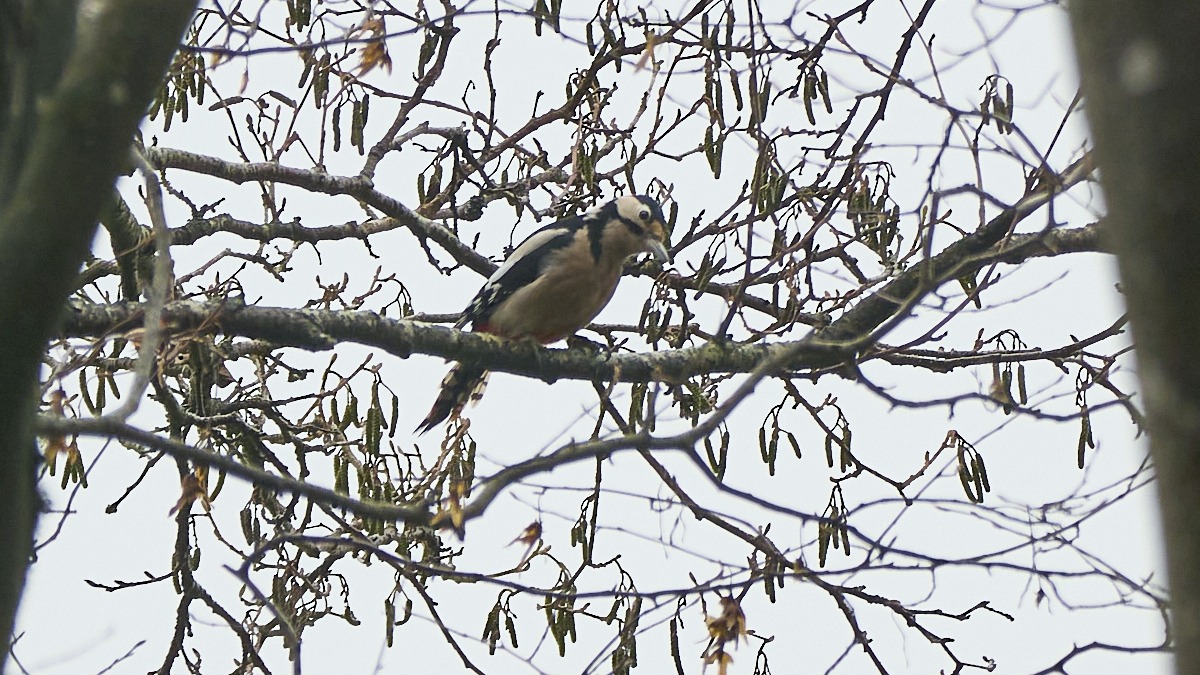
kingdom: Animalia
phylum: Chordata
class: Aves
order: Piciformes
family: Picidae
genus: Dendrocopos
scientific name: Dendrocopos major
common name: Stor flagspætte
